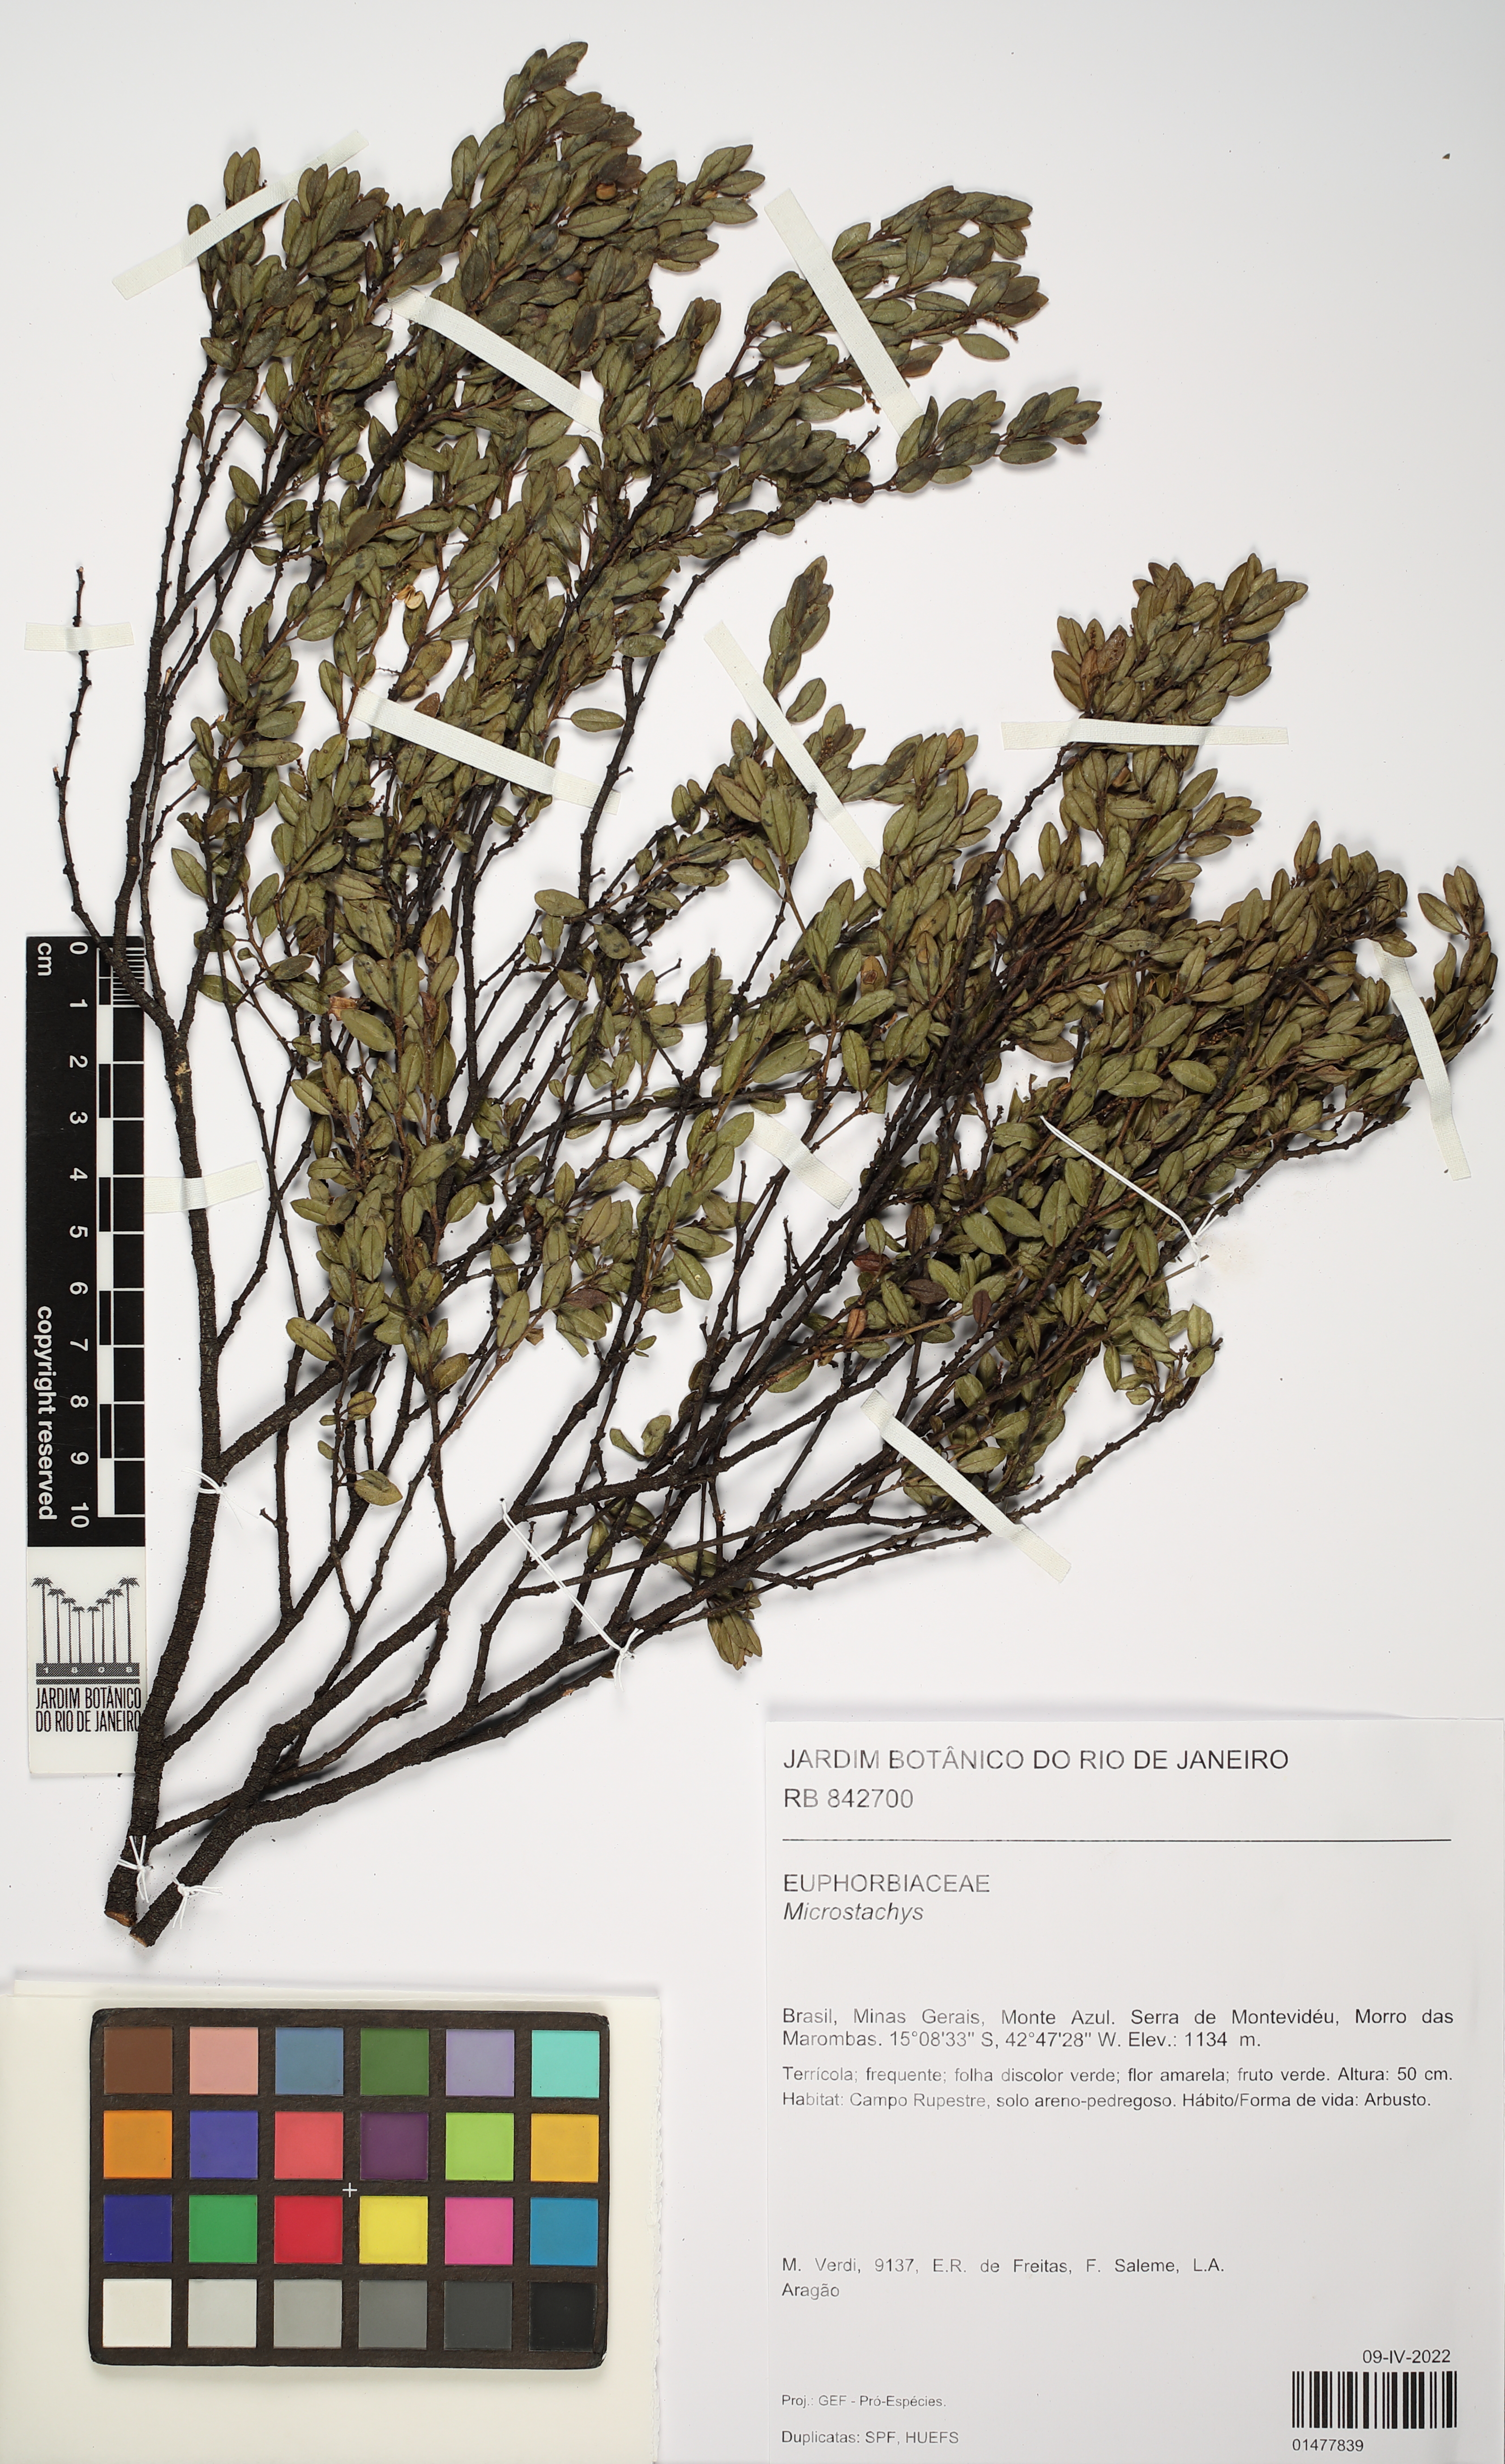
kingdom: Plantae
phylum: Tracheophyta
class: Magnoliopsida
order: Malpighiales
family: Euphorbiaceae
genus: Microstachys
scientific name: Microstachys
